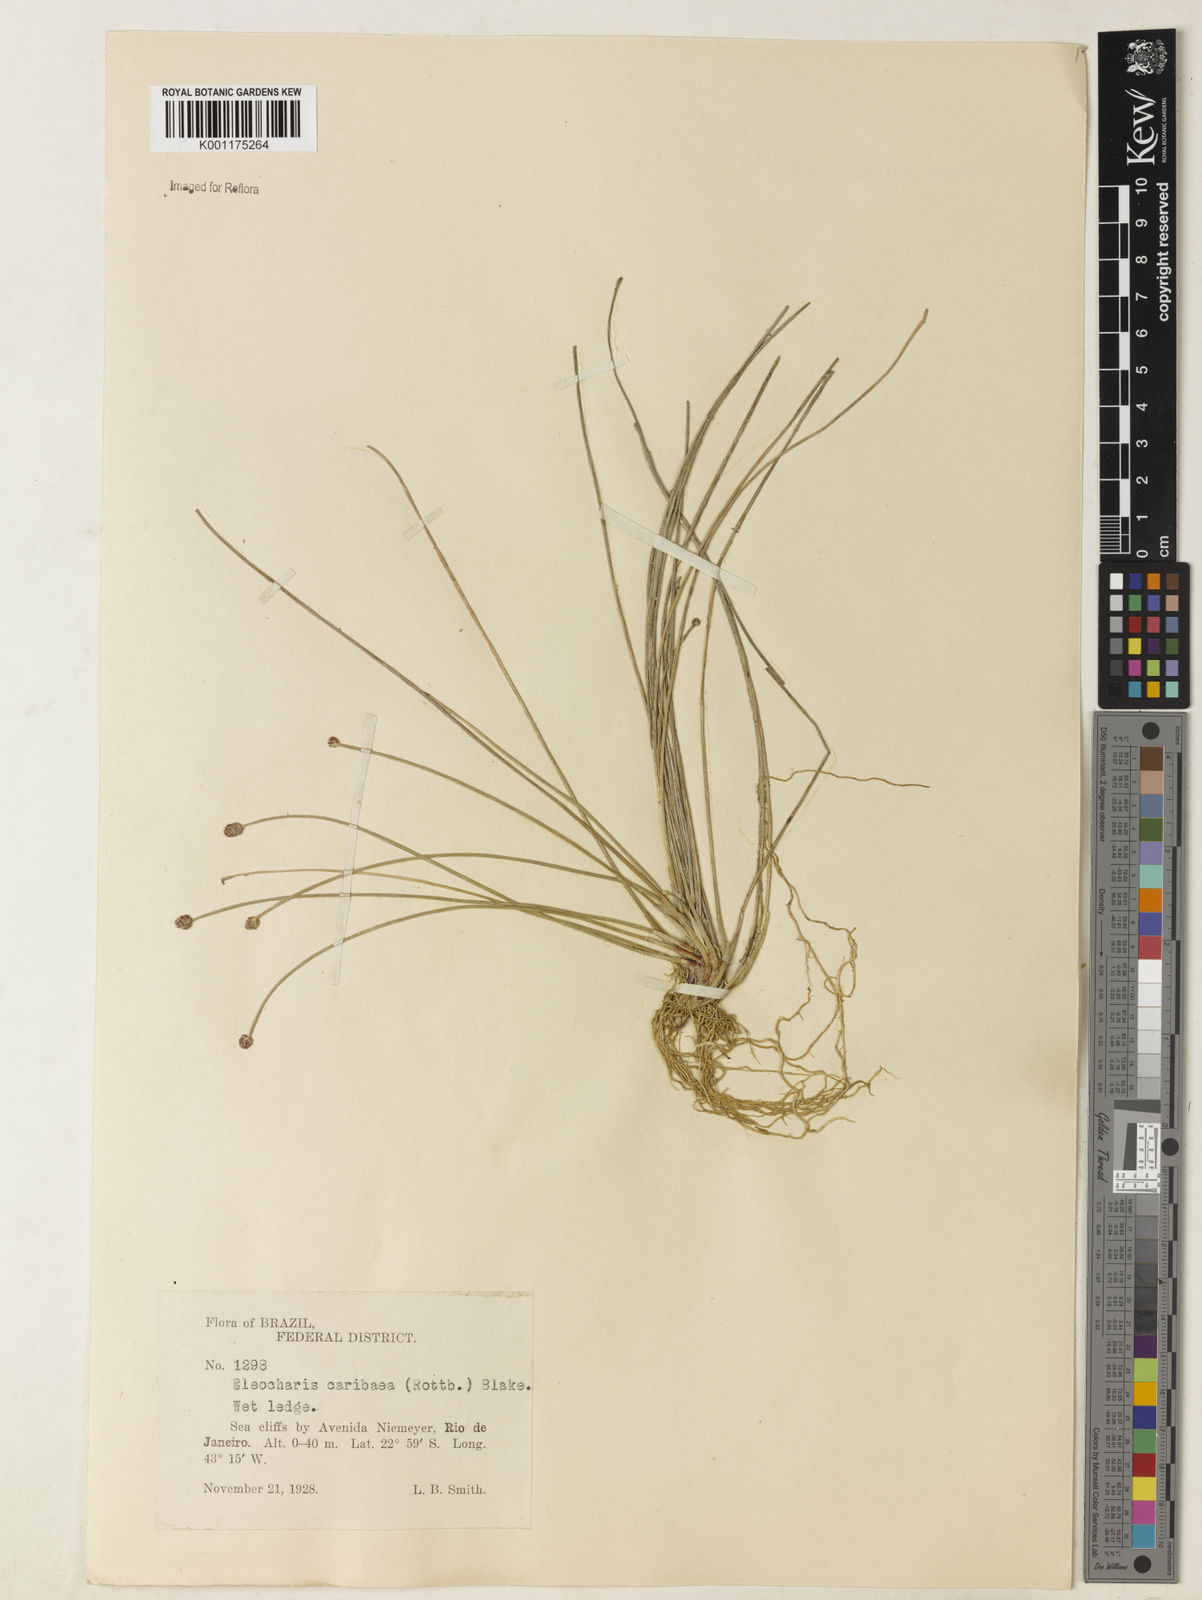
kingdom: Plantae
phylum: Tracheophyta
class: Liliopsida
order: Poales
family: Cyperaceae
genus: Eleocharis
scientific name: Eleocharis geniculata
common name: Canada spikesedge
